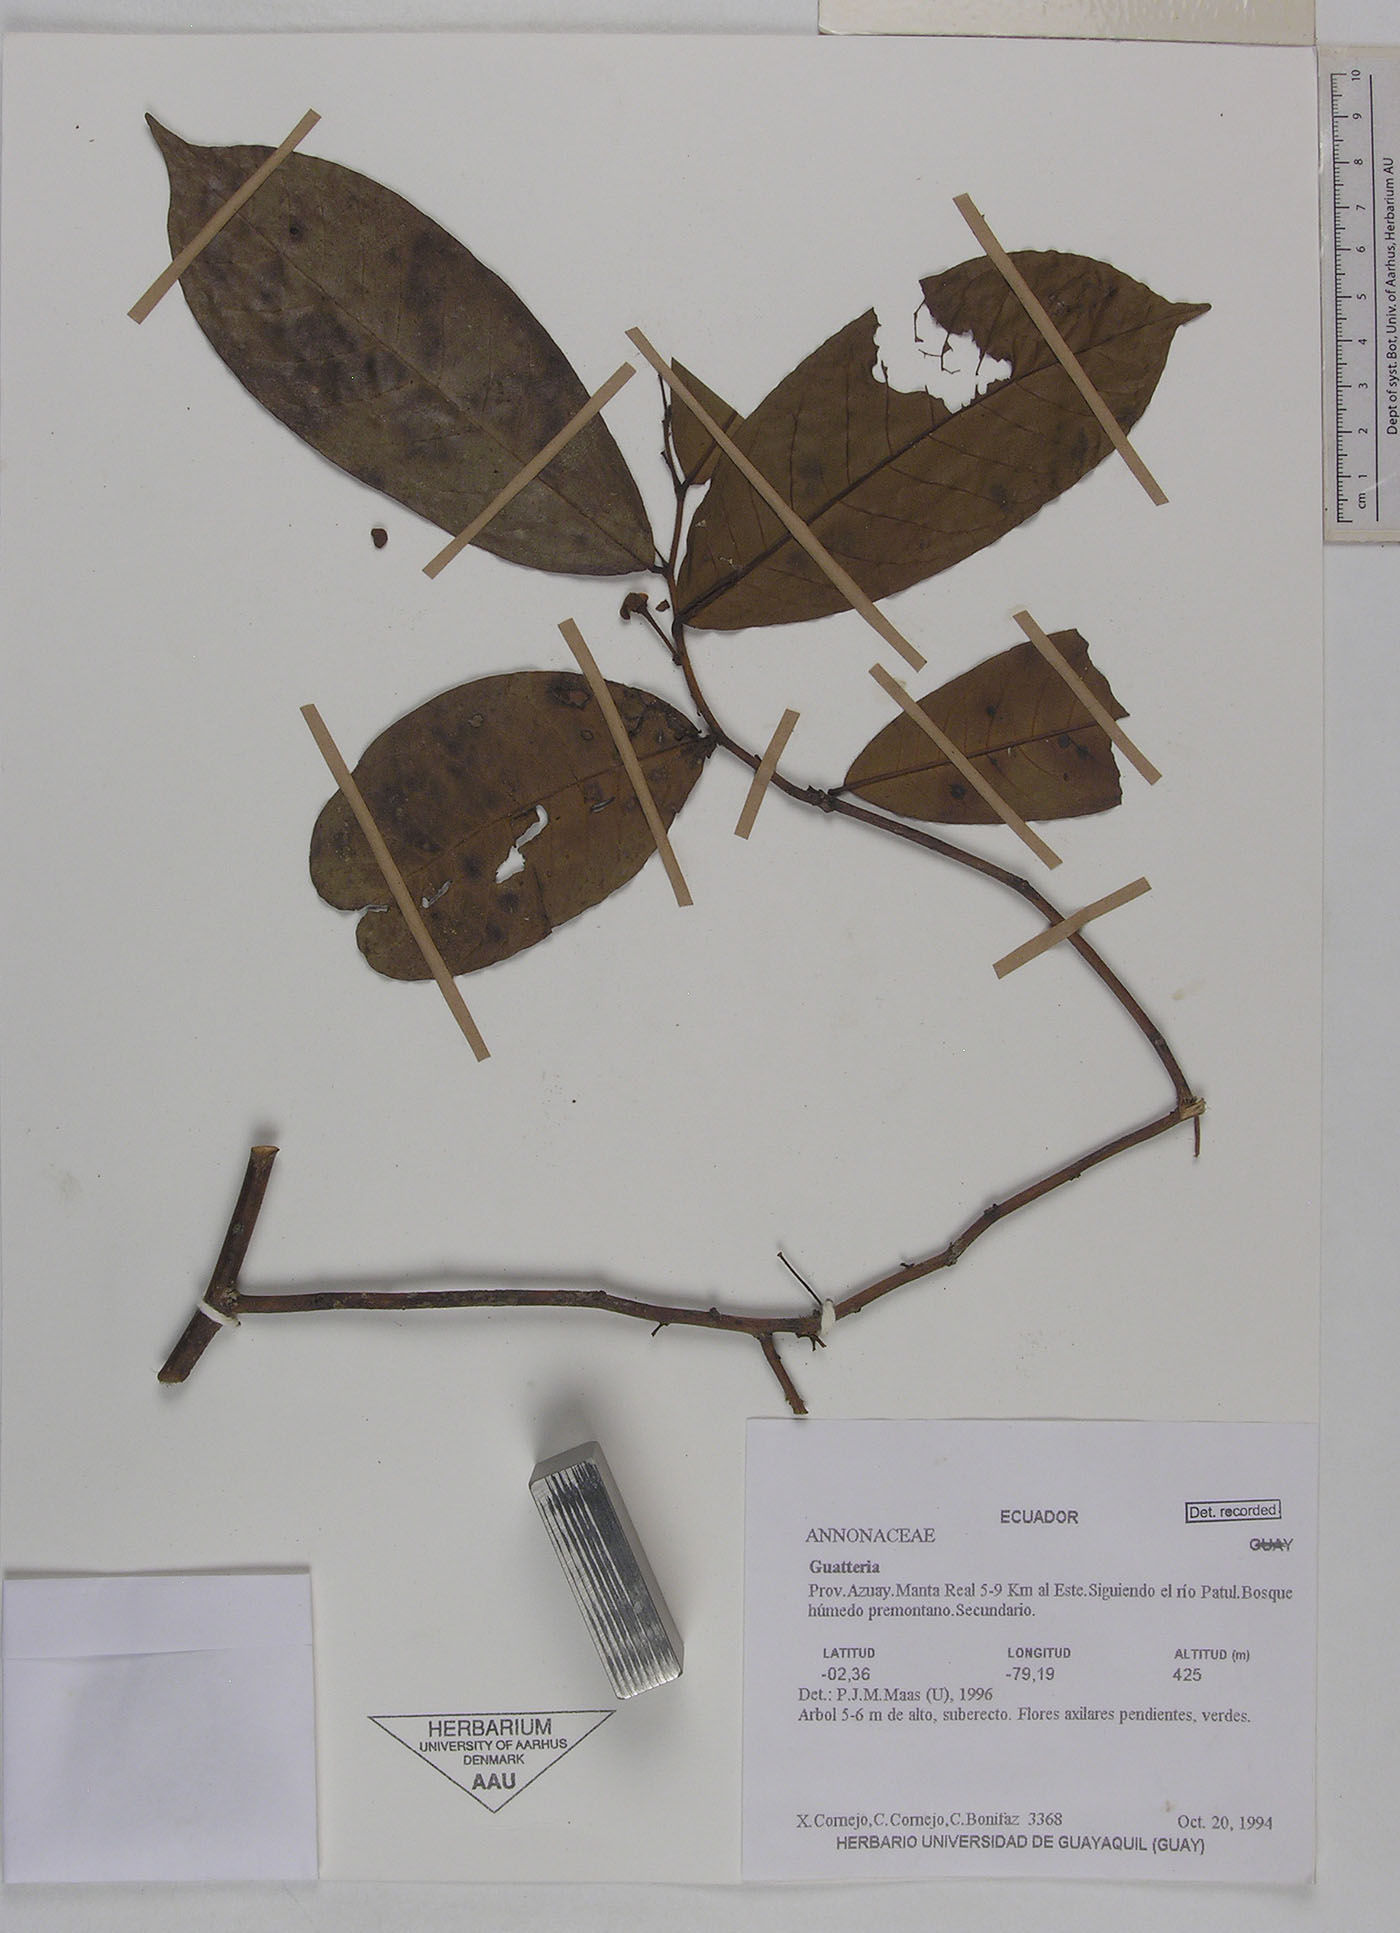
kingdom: Plantae
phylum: Tracheophyta
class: Magnoliopsida
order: Magnoliales
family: Annonaceae
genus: Guatteria
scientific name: Guatteria microcarpa
